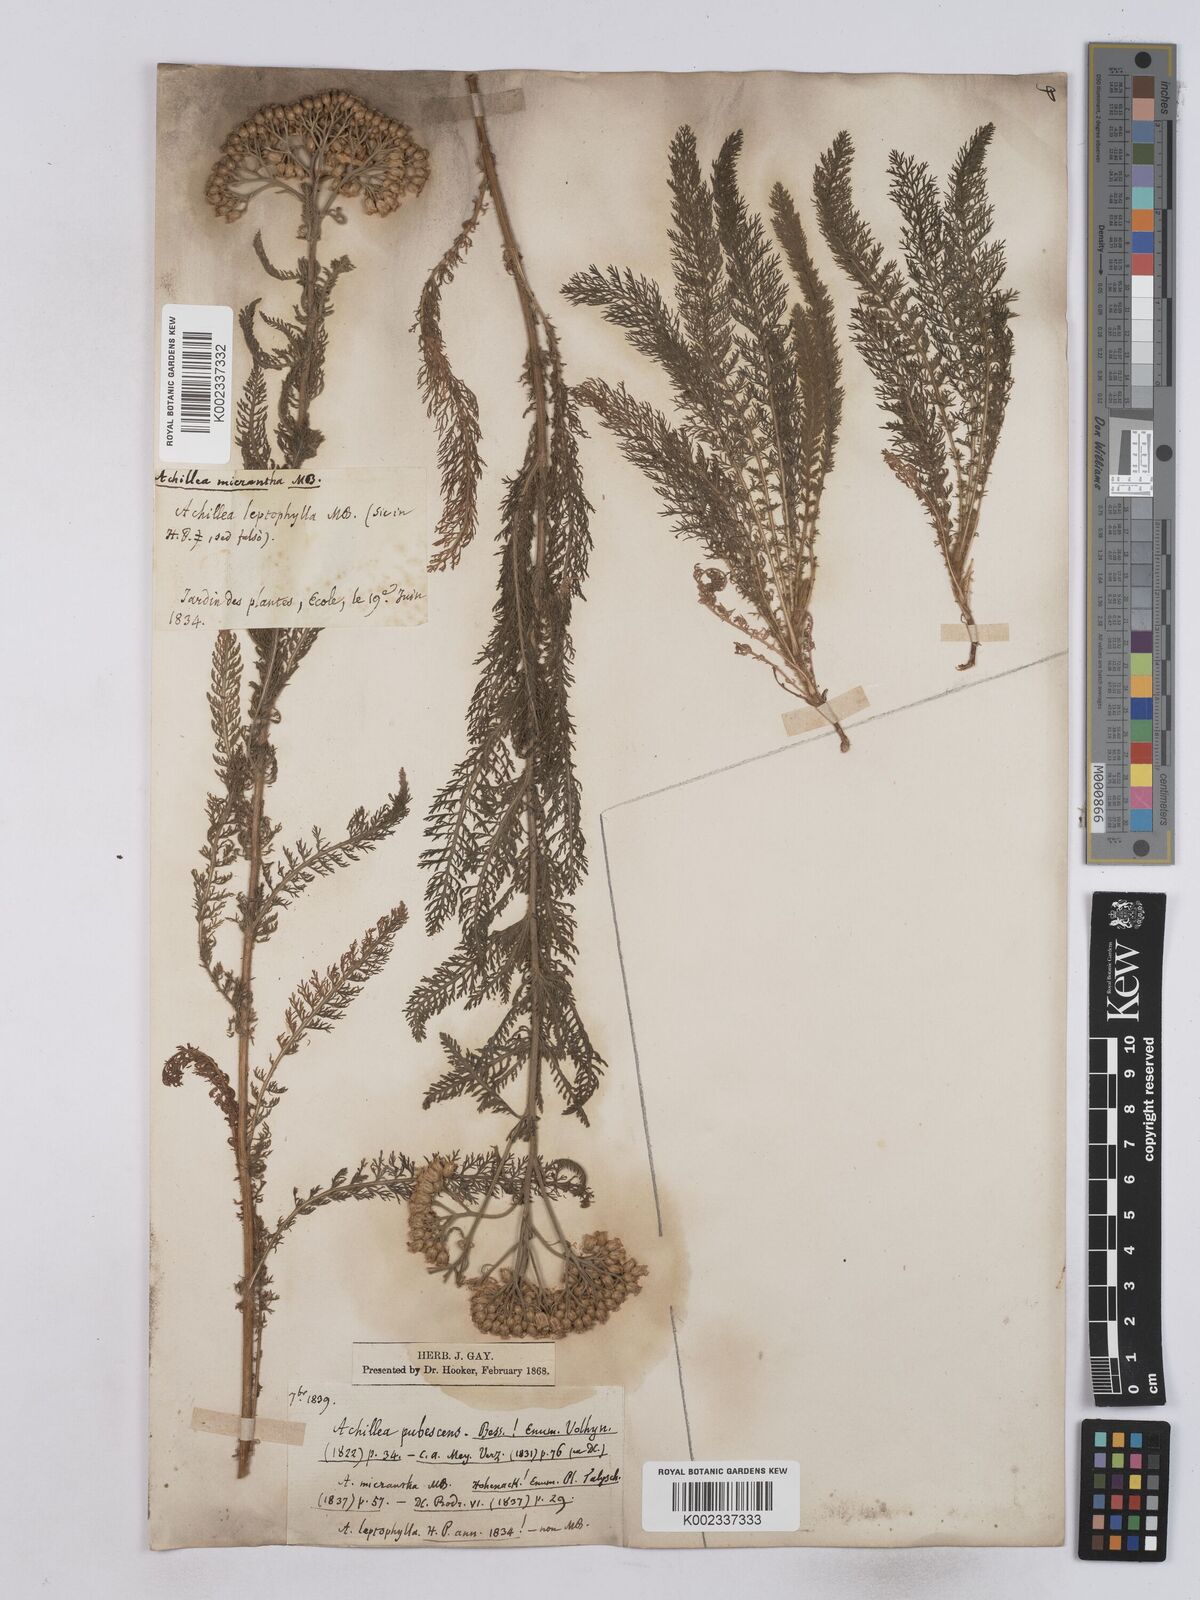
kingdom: Plantae
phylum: Tracheophyta
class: Magnoliopsida
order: Asterales
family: Asteraceae
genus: Achillea
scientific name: Achillea micrantha
